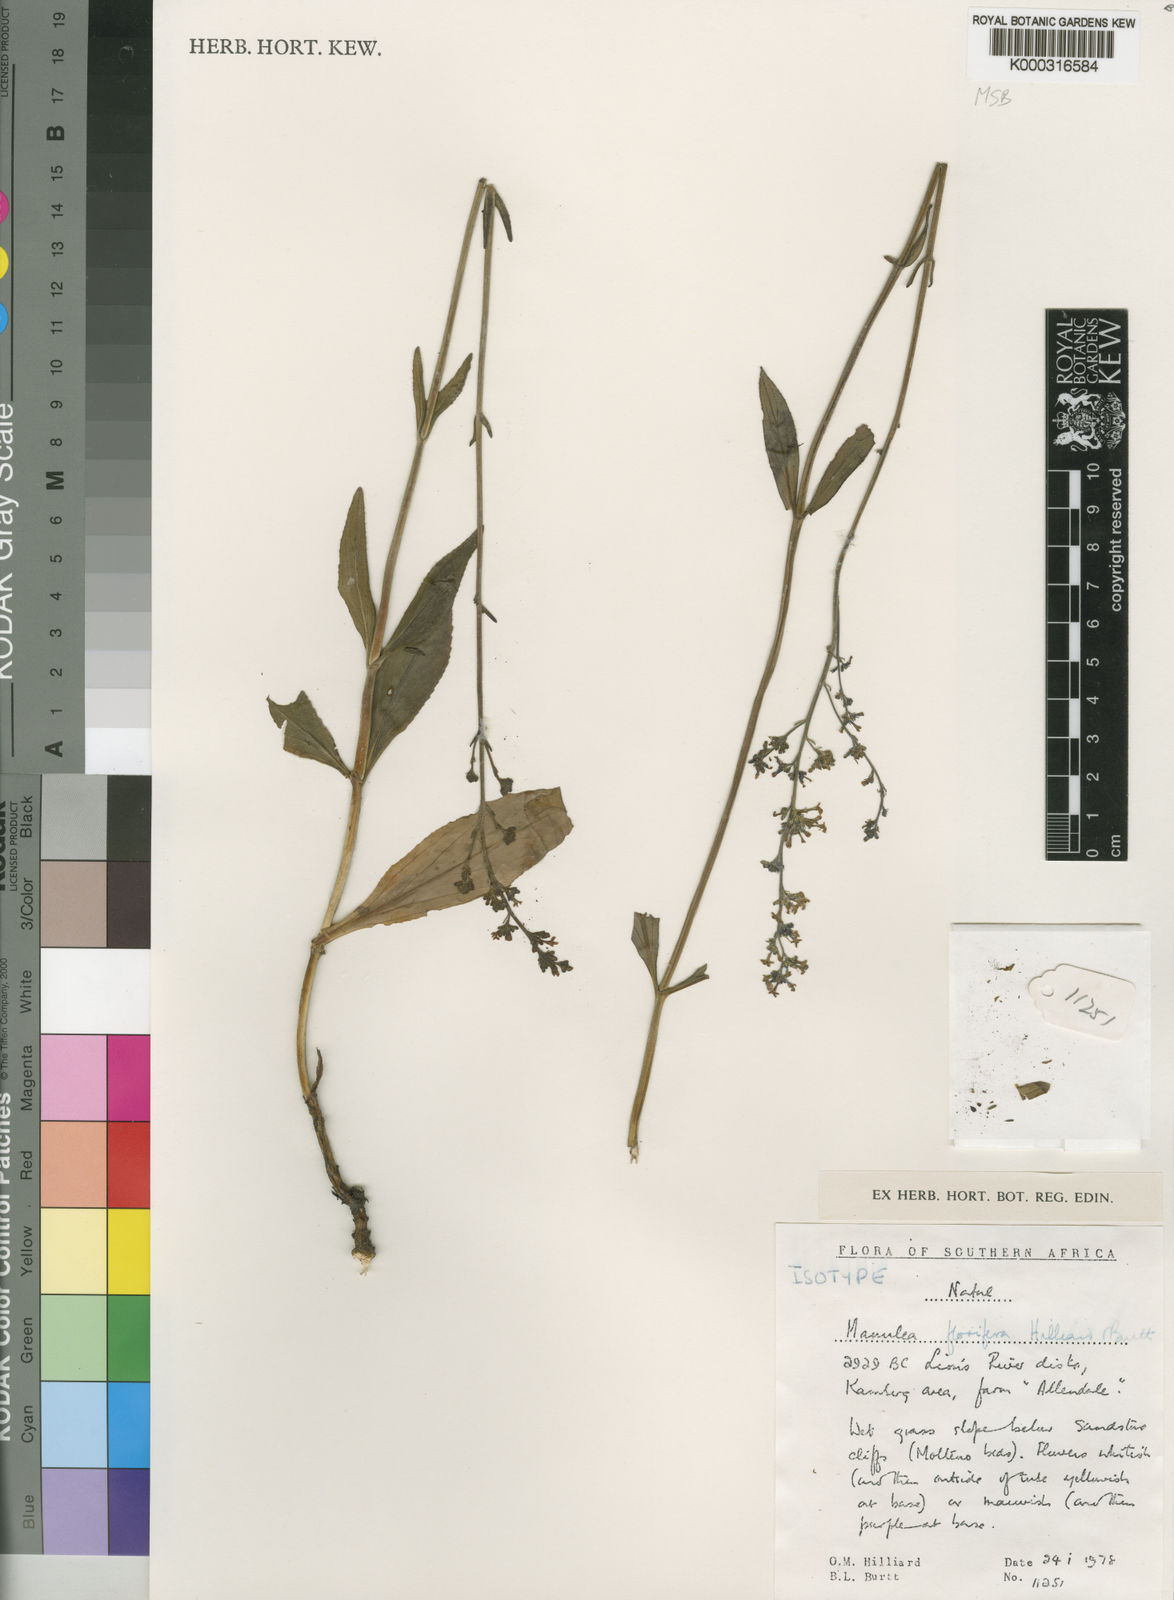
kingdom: Plantae
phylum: Tracheophyta
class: Magnoliopsida
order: Lamiales
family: Scrophulariaceae
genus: Manulea
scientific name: Manulea florifera
